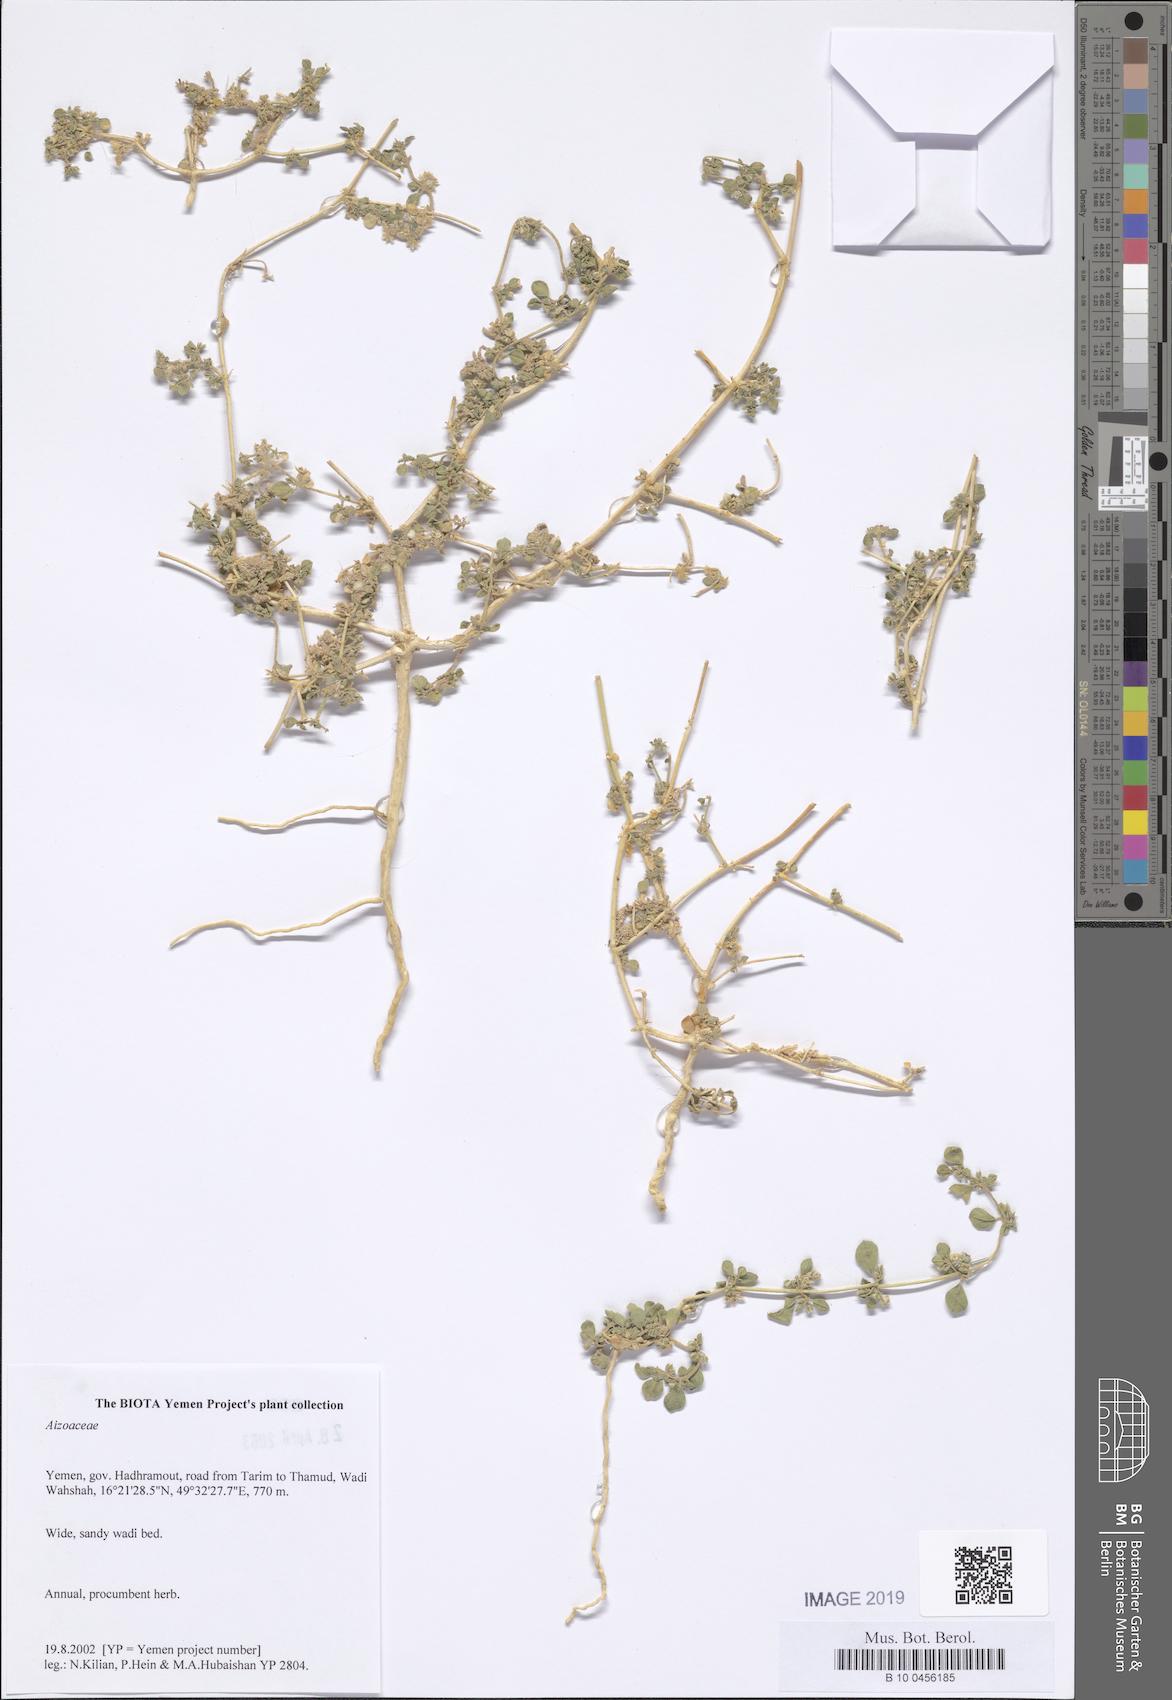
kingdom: Plantae
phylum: Tracheophyta
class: Magnoliopsida
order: Caryophyllales
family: Aizoaceae
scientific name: Aizoaceae
